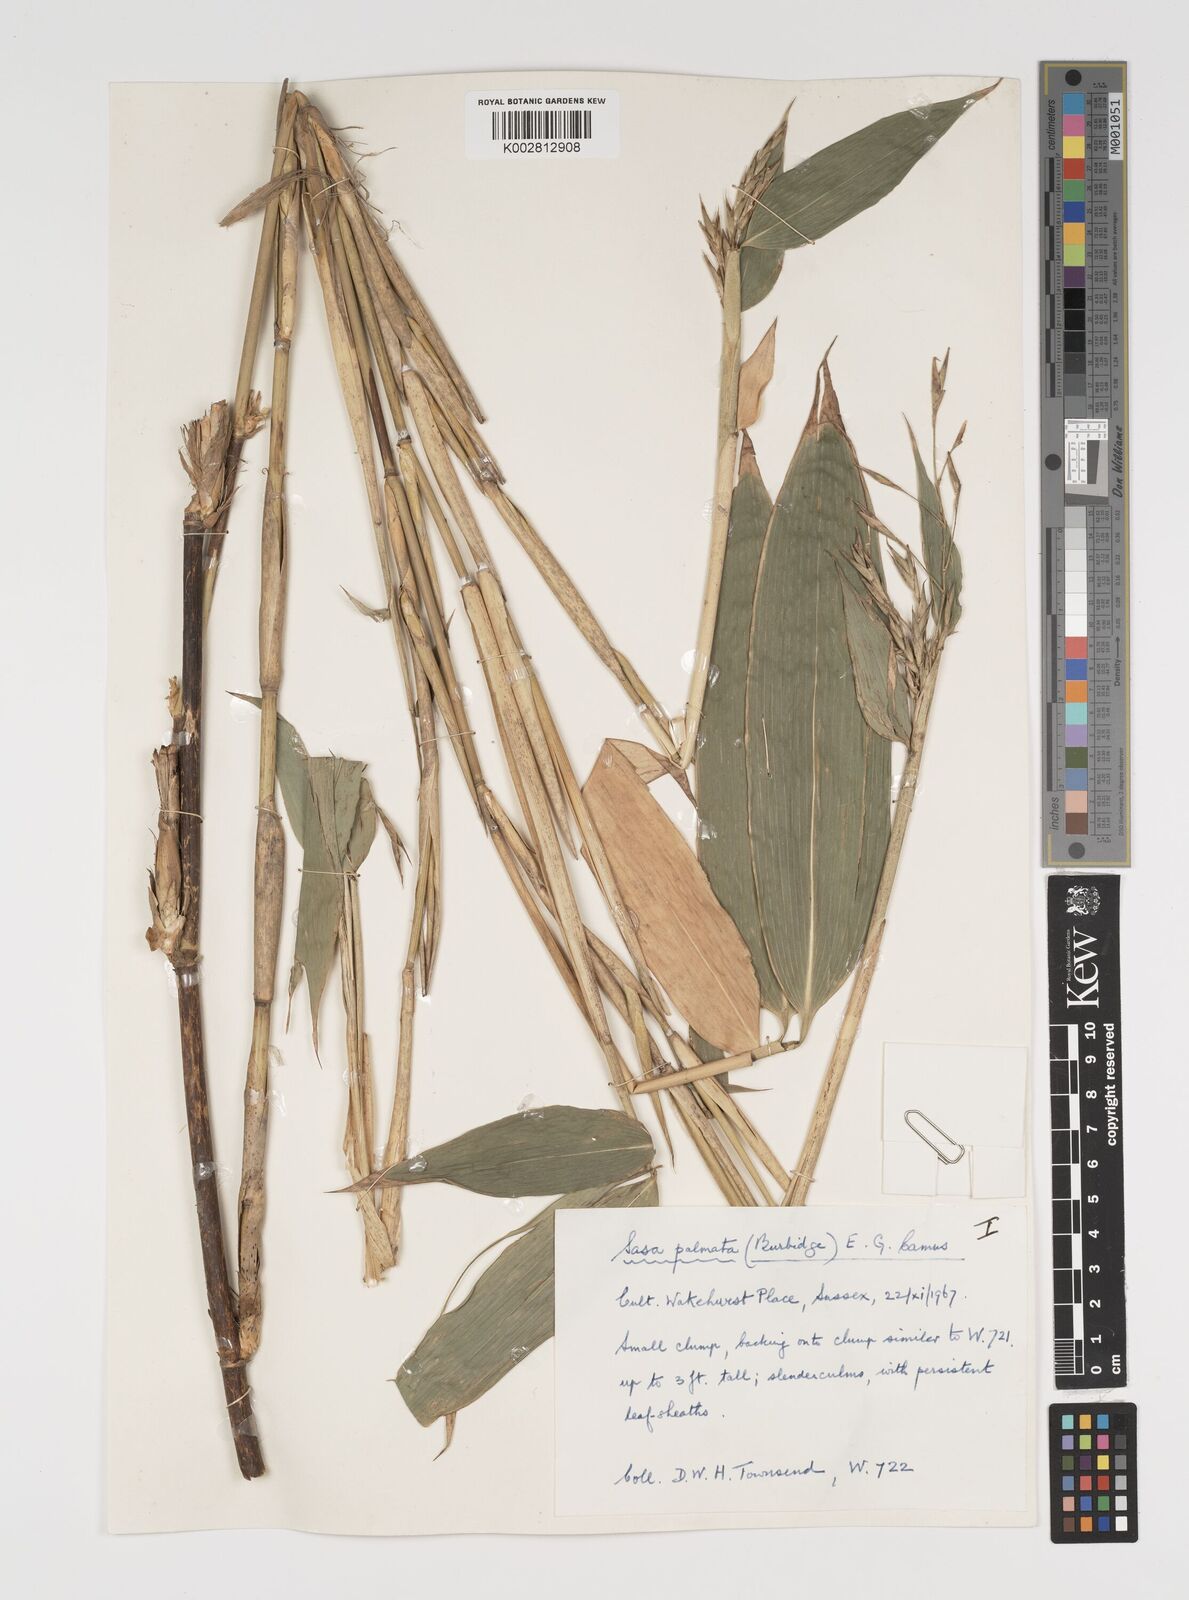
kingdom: Plantae
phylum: Tracheophyta
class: Liliopsida
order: Poales
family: Poaceae
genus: Sasa
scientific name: Sasa palmata
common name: Broad-leaved bamboo
